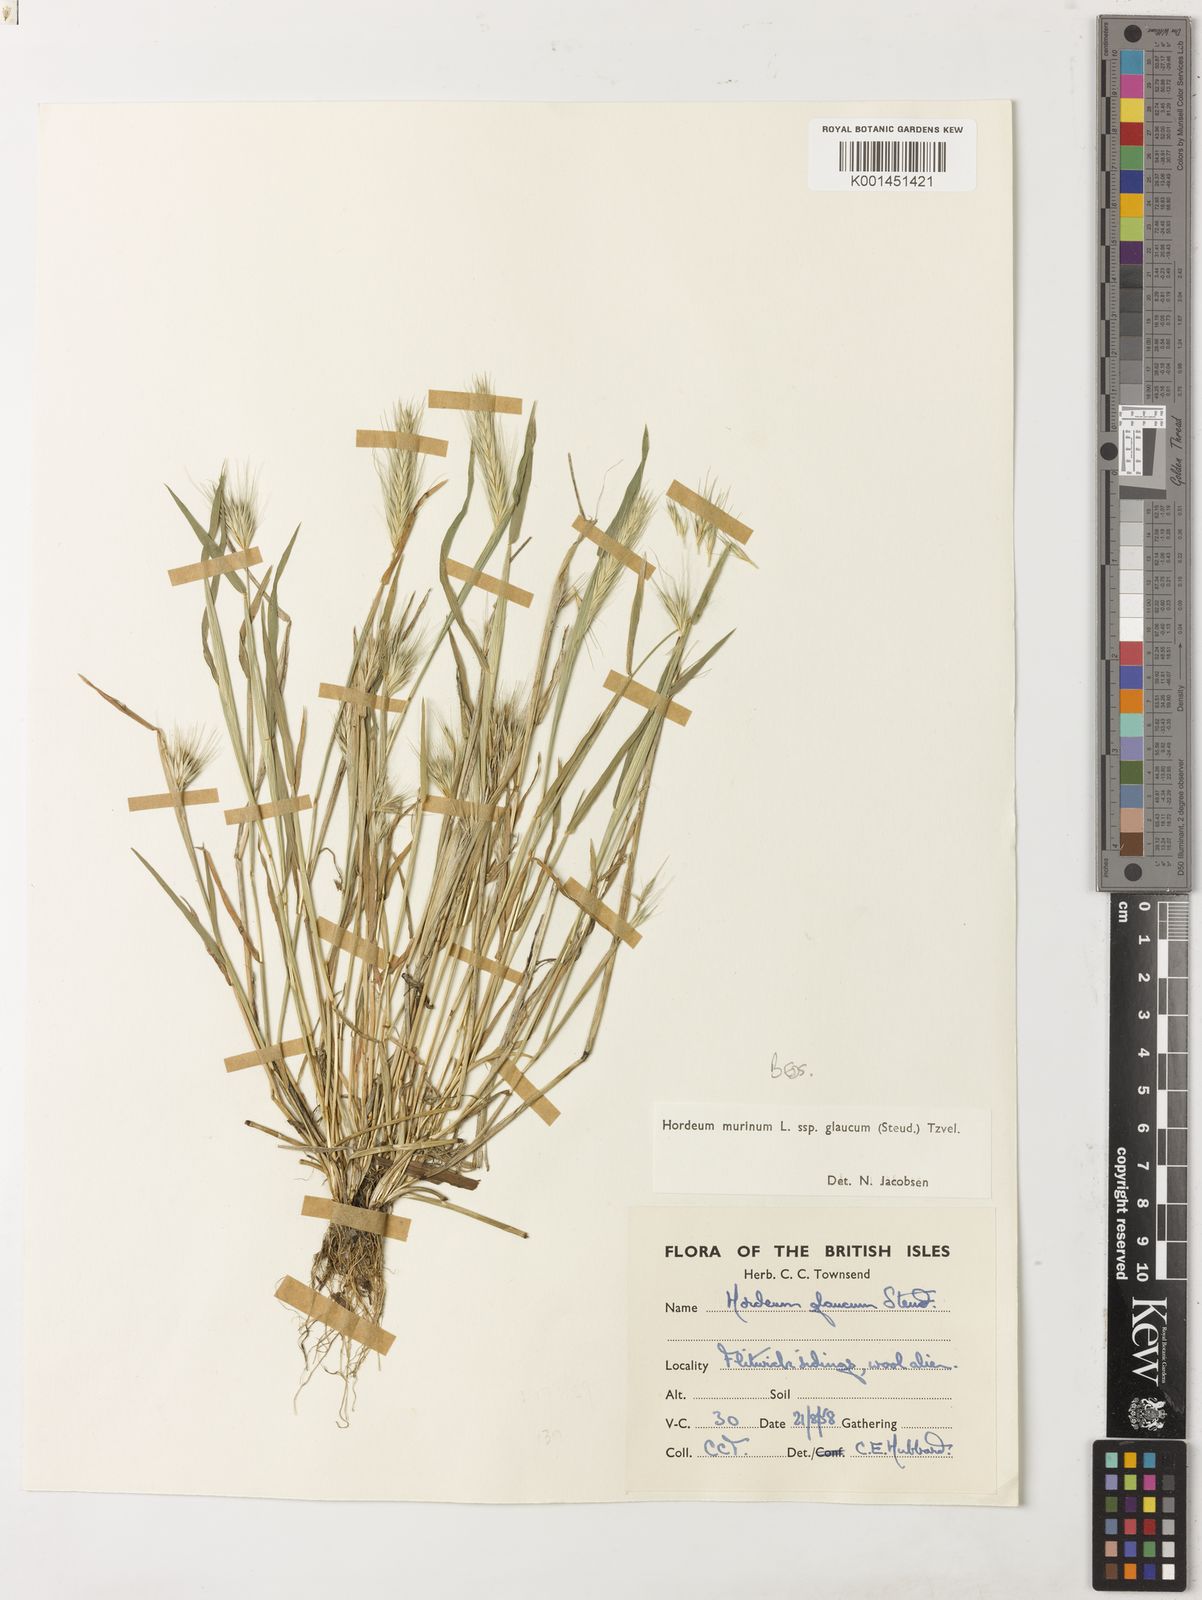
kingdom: Plantae
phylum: Tracheophyta
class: Liliopsida
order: Poales
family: Poaceae
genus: Hordeum
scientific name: Hordeum murinum
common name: Wall barley
